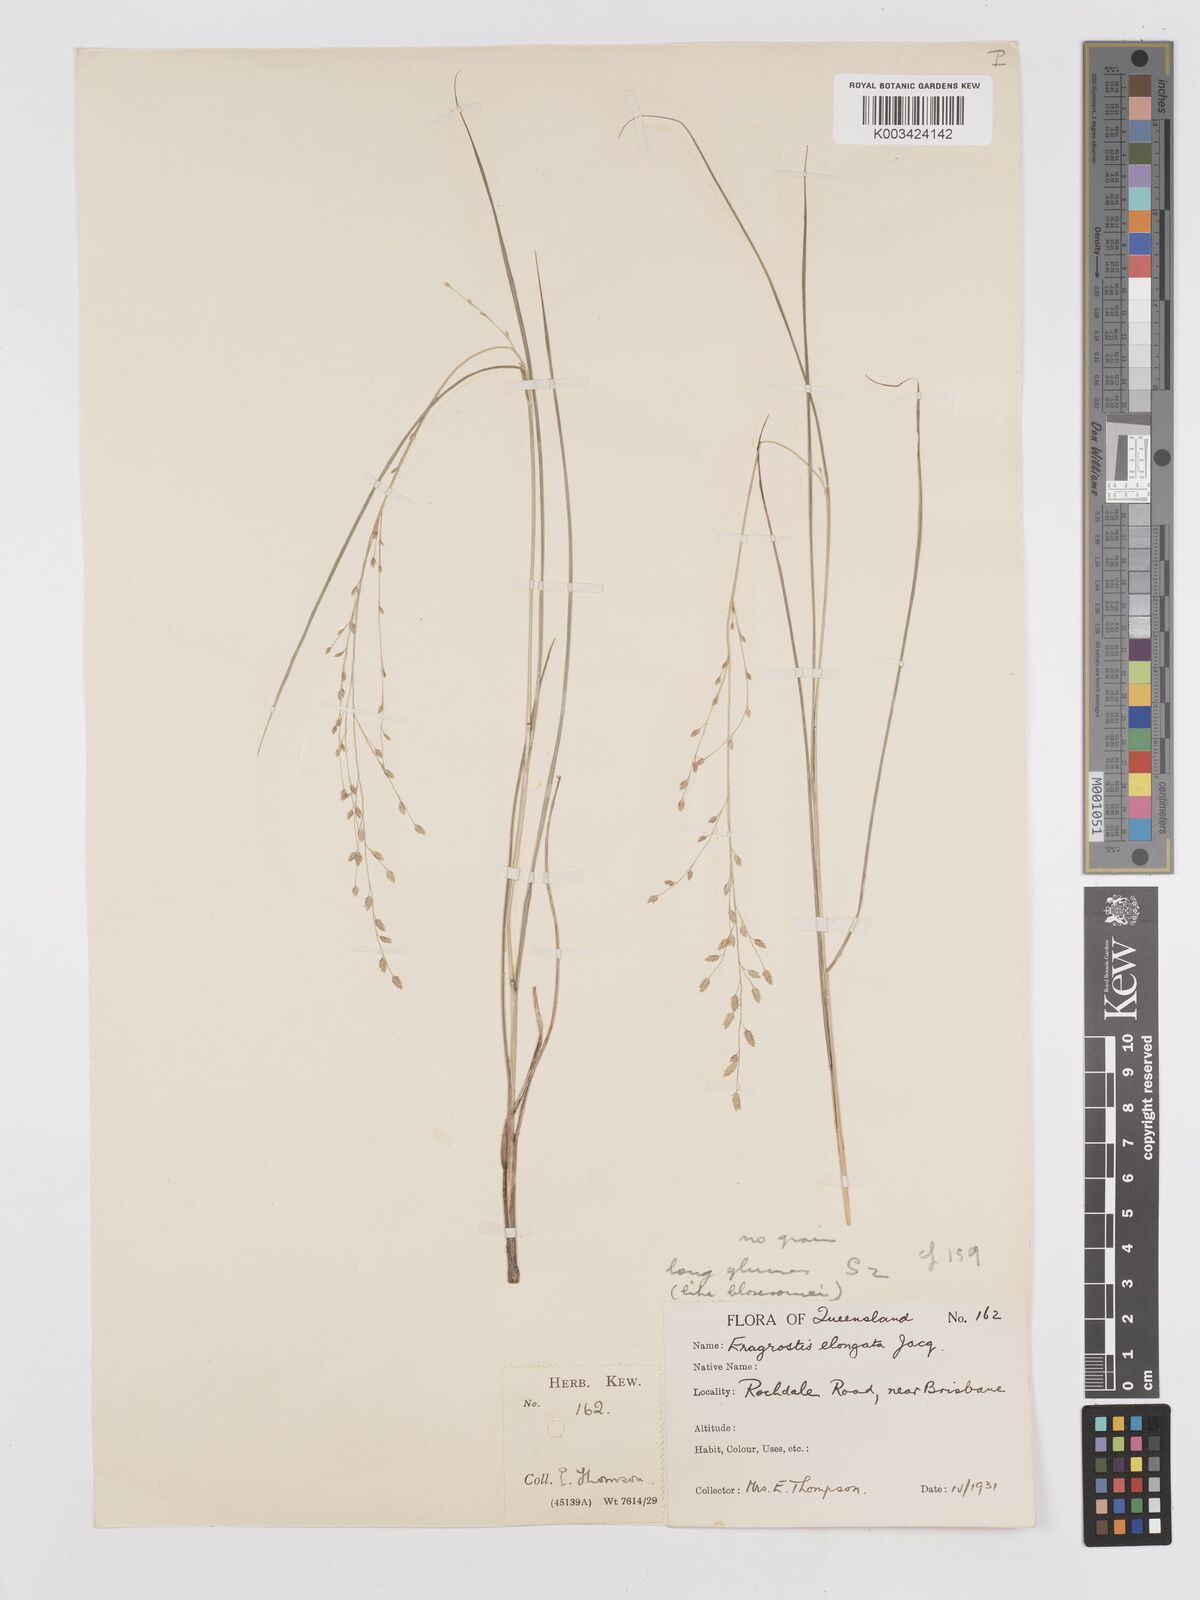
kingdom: Plantae
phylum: Tracheophyta
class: Liliopsida
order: Poales
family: Poaceae
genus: Eragrostis
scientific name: Eragrostis brownii
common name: Lovegrass
